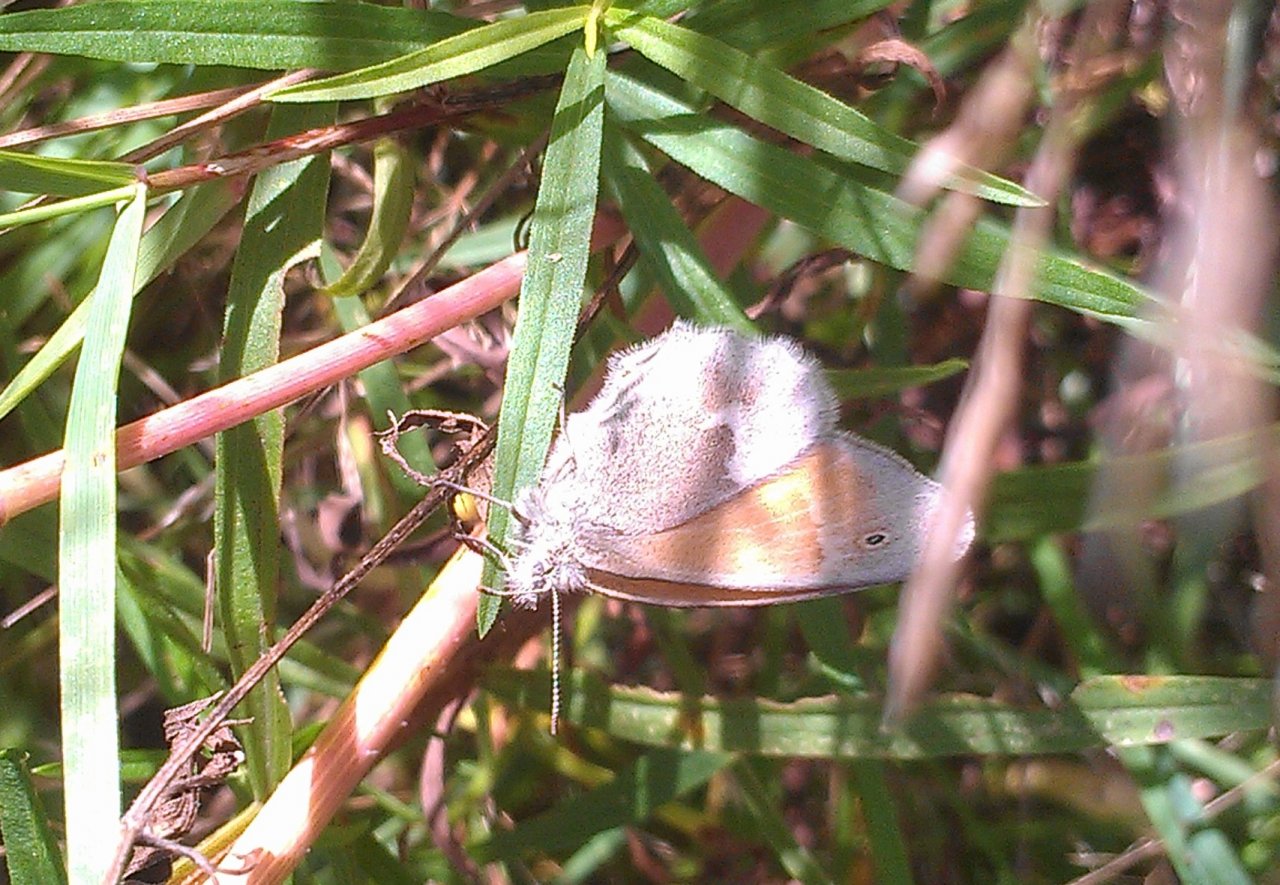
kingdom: Animalia
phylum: Arthropoda
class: Insecta
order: Lepidoptera
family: Nymphalidae
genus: Coenonympha
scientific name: Coenonympha tullia
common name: Large Heath
